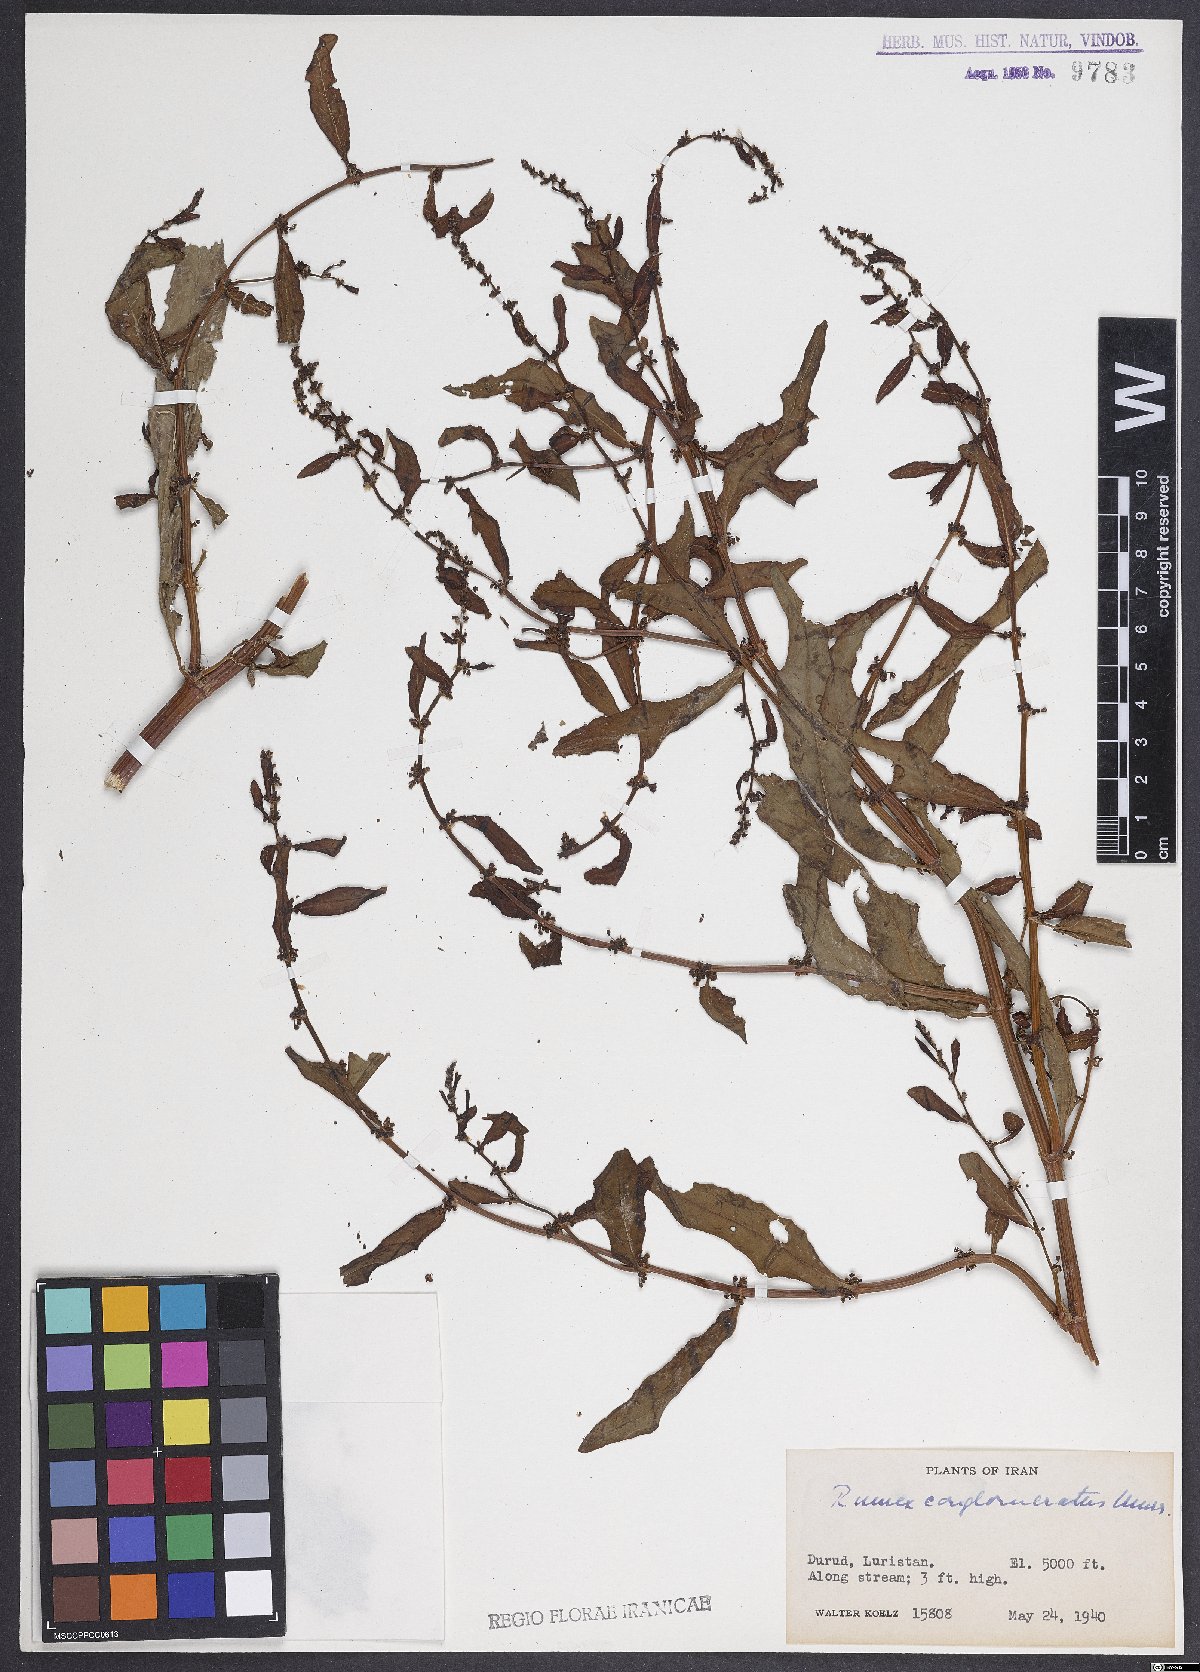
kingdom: Plantae
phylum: Tracheophyta
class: Magnoliopsida
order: Caryophyllales
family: Polygonaceae
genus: Rumex
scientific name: Rumex conglomeratus
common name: Clustered dock
